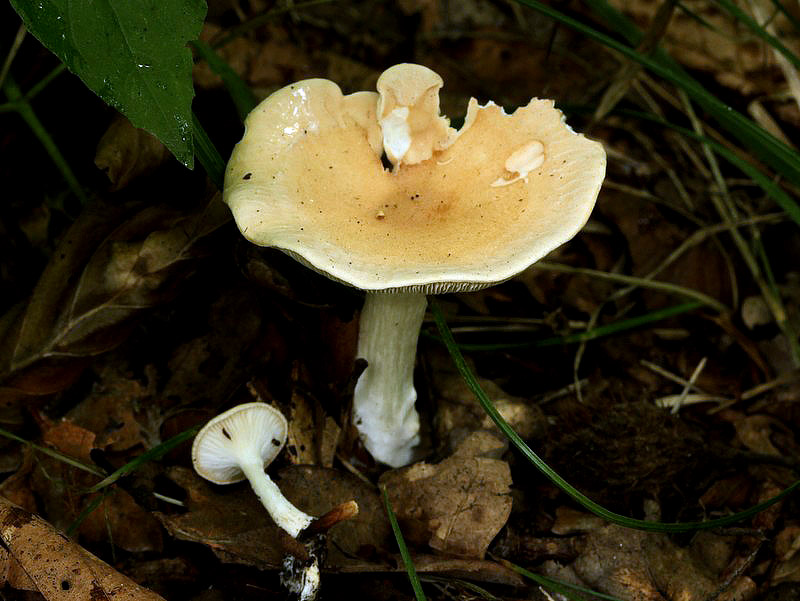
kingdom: Fungi
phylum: Basidiomycota
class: Agaricomycetes
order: Agaricales
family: Tricholomataceae
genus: Infundibulicybe
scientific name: Infundibulicybe gibba
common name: almindelig tragthat
